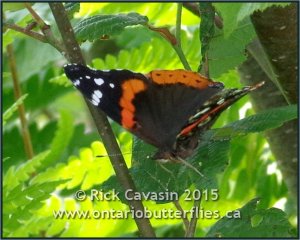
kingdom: Animalia
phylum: Arthropoda
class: Insecta
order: Lepidoptera
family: Nymphalidae
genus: Vanessa
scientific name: Vanessa atalanta
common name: Red Admiral
